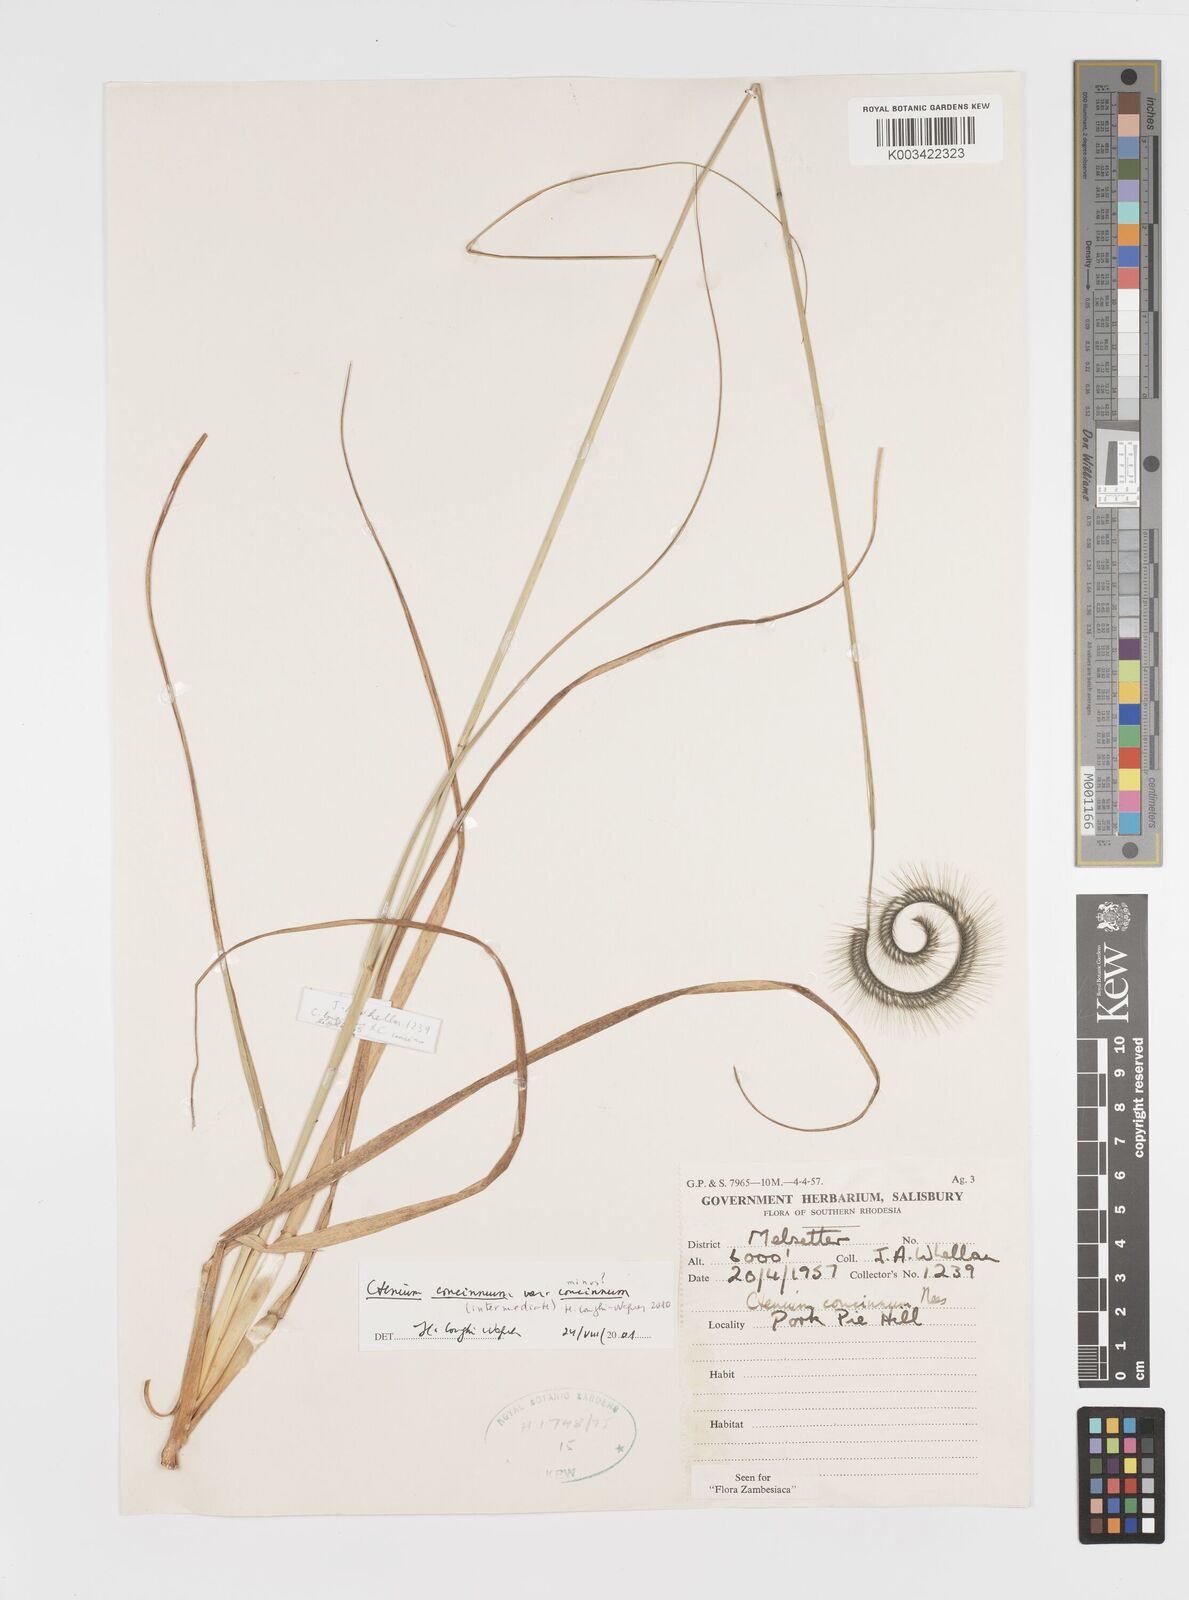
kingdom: Plantae
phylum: Tracheophyta
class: Liliopsida
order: Poales
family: Poaceae
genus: Ctenium
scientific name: Ctenium concinnum
